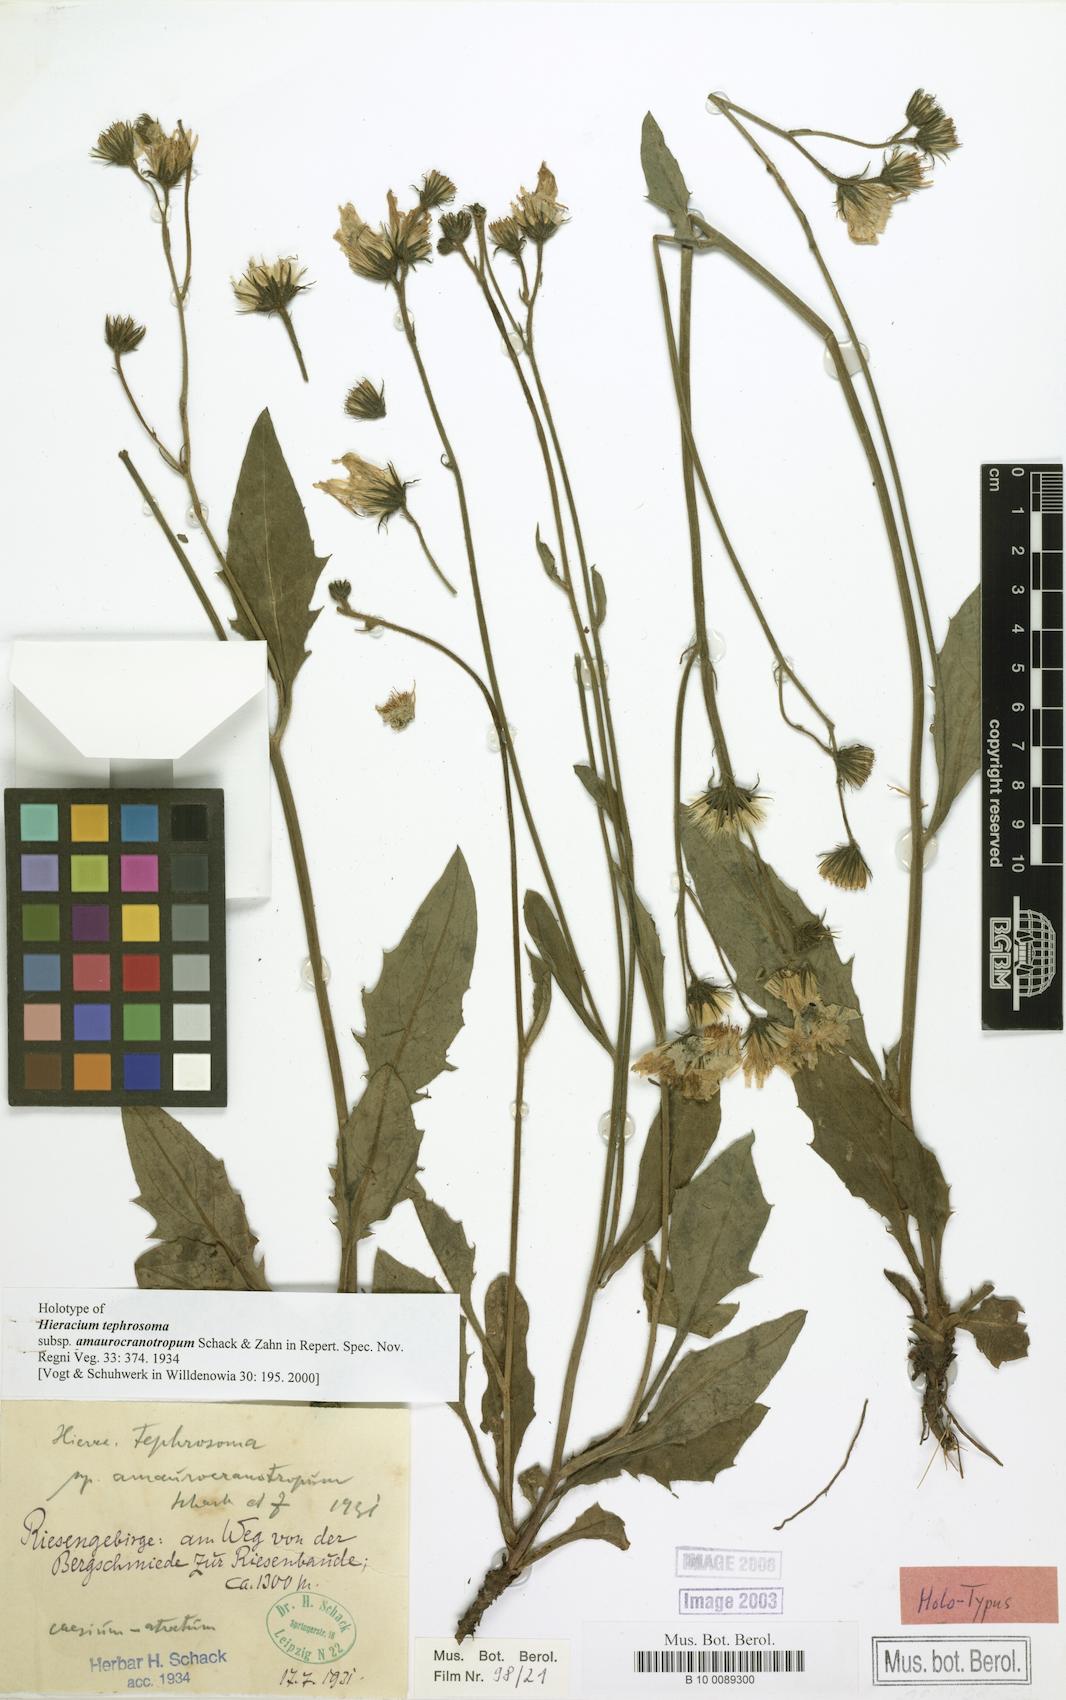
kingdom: Plantae
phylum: Tracheophyta
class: Magnoliopsida
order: Asterales
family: Asteraceae
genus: Hieracium
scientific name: Hieracium tephrosoma
